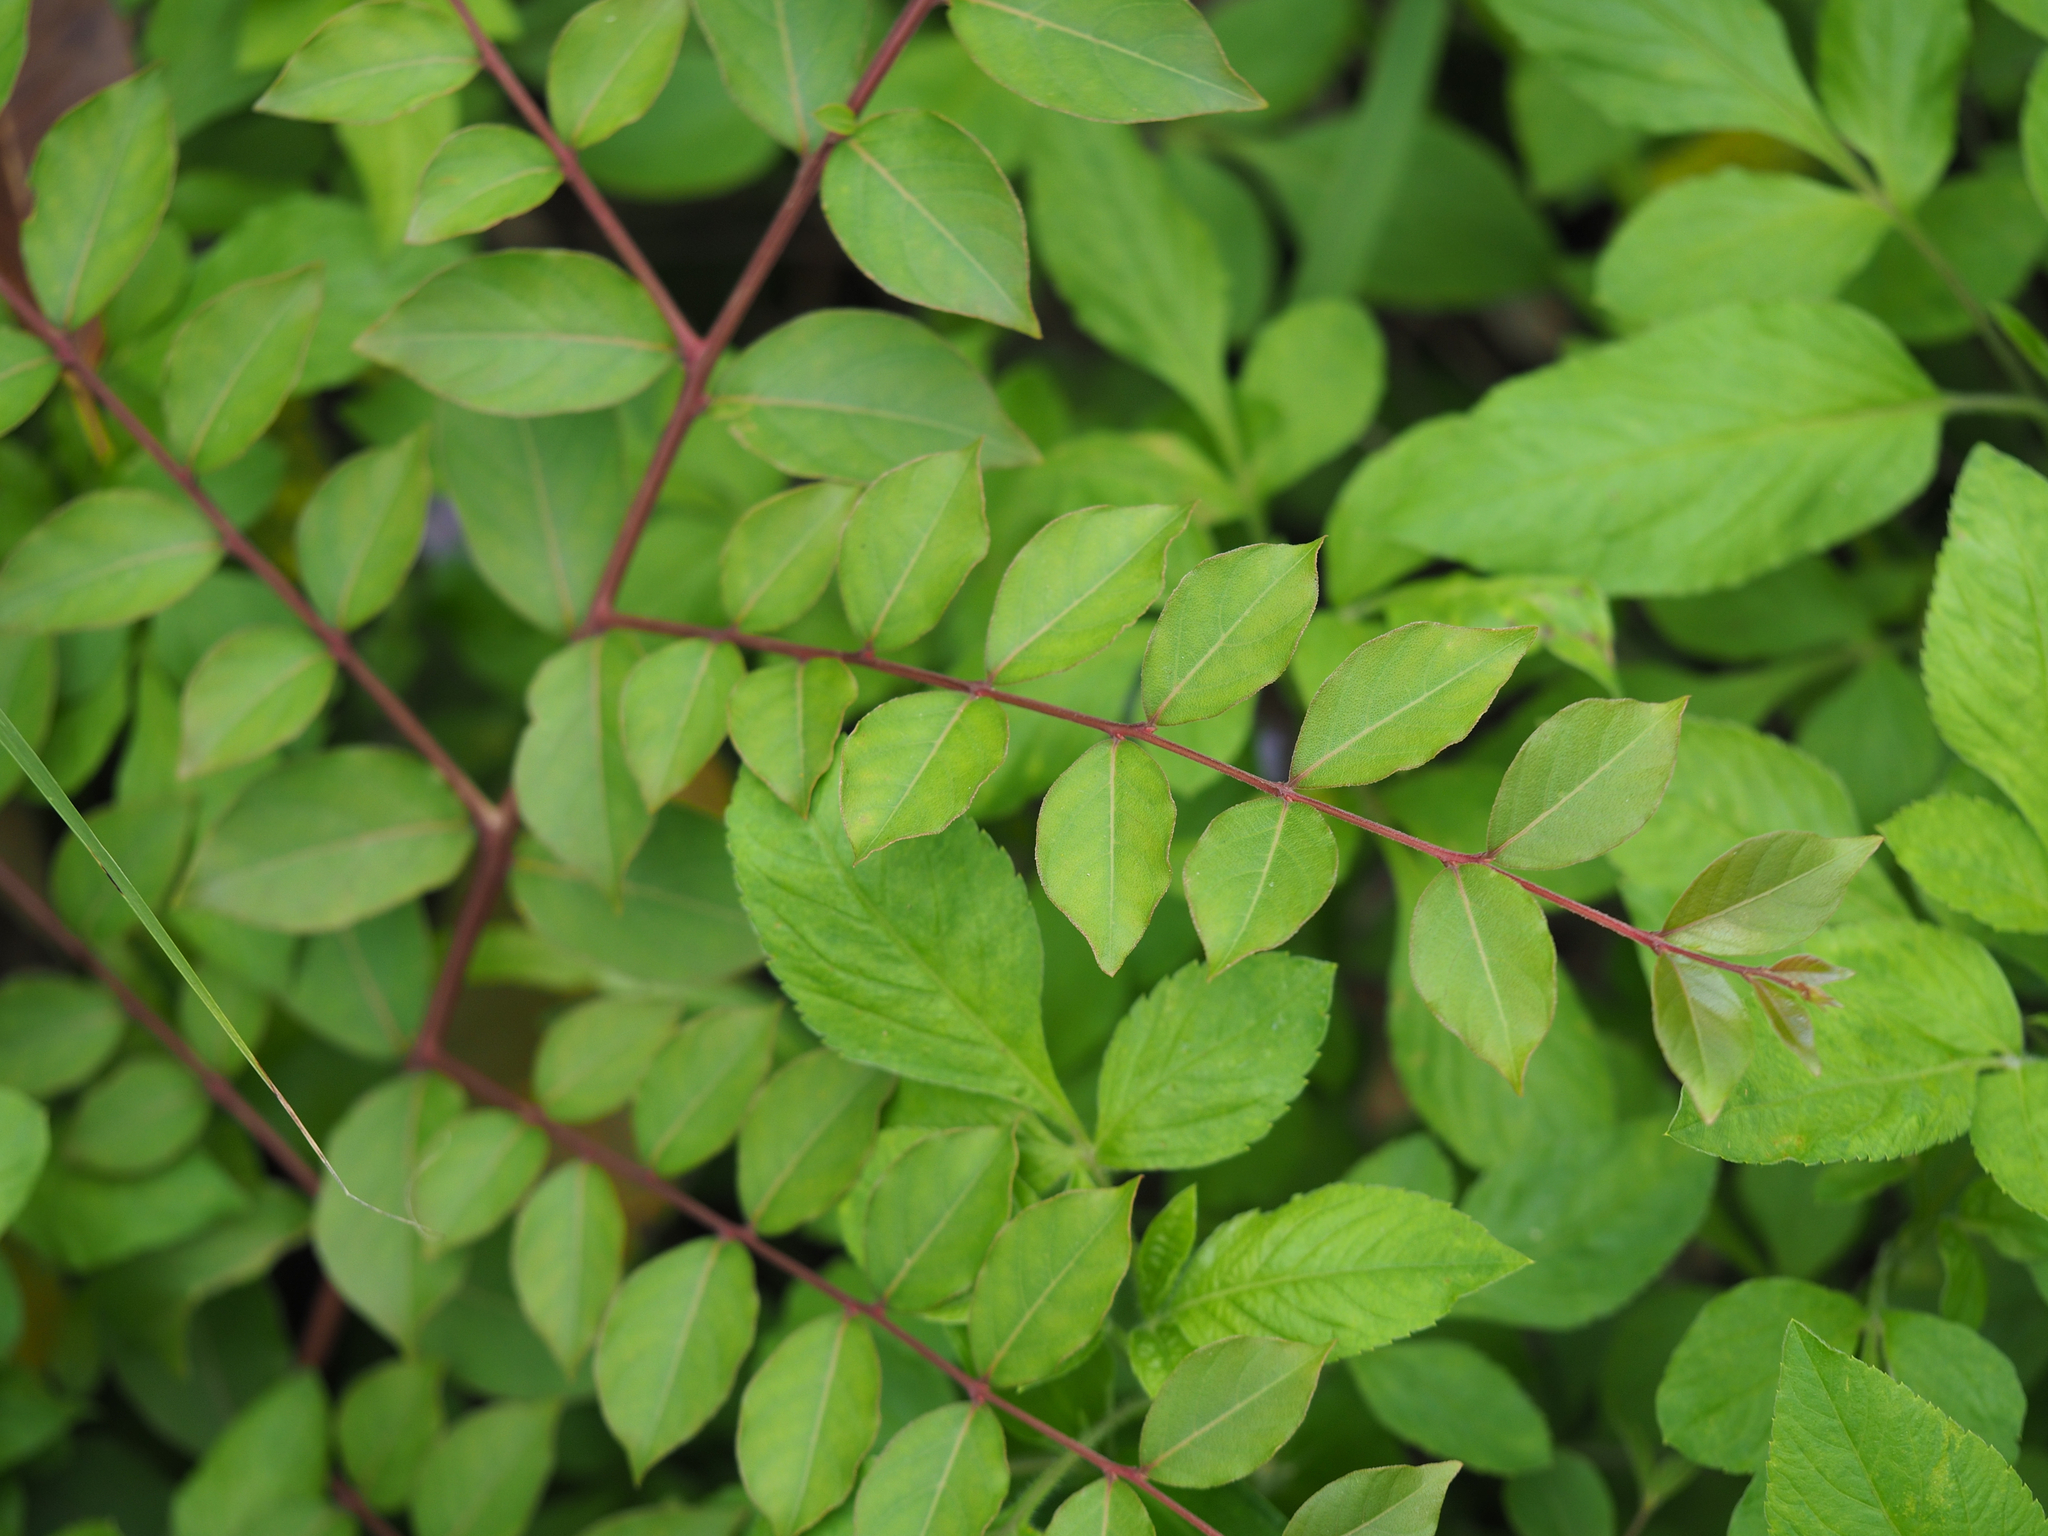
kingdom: Plantae
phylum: Tracheophyta
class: Magnoliopsida
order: Myrtales
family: Lythraceae
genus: Lagerstroemia
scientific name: Lagerstroemia subcostata
